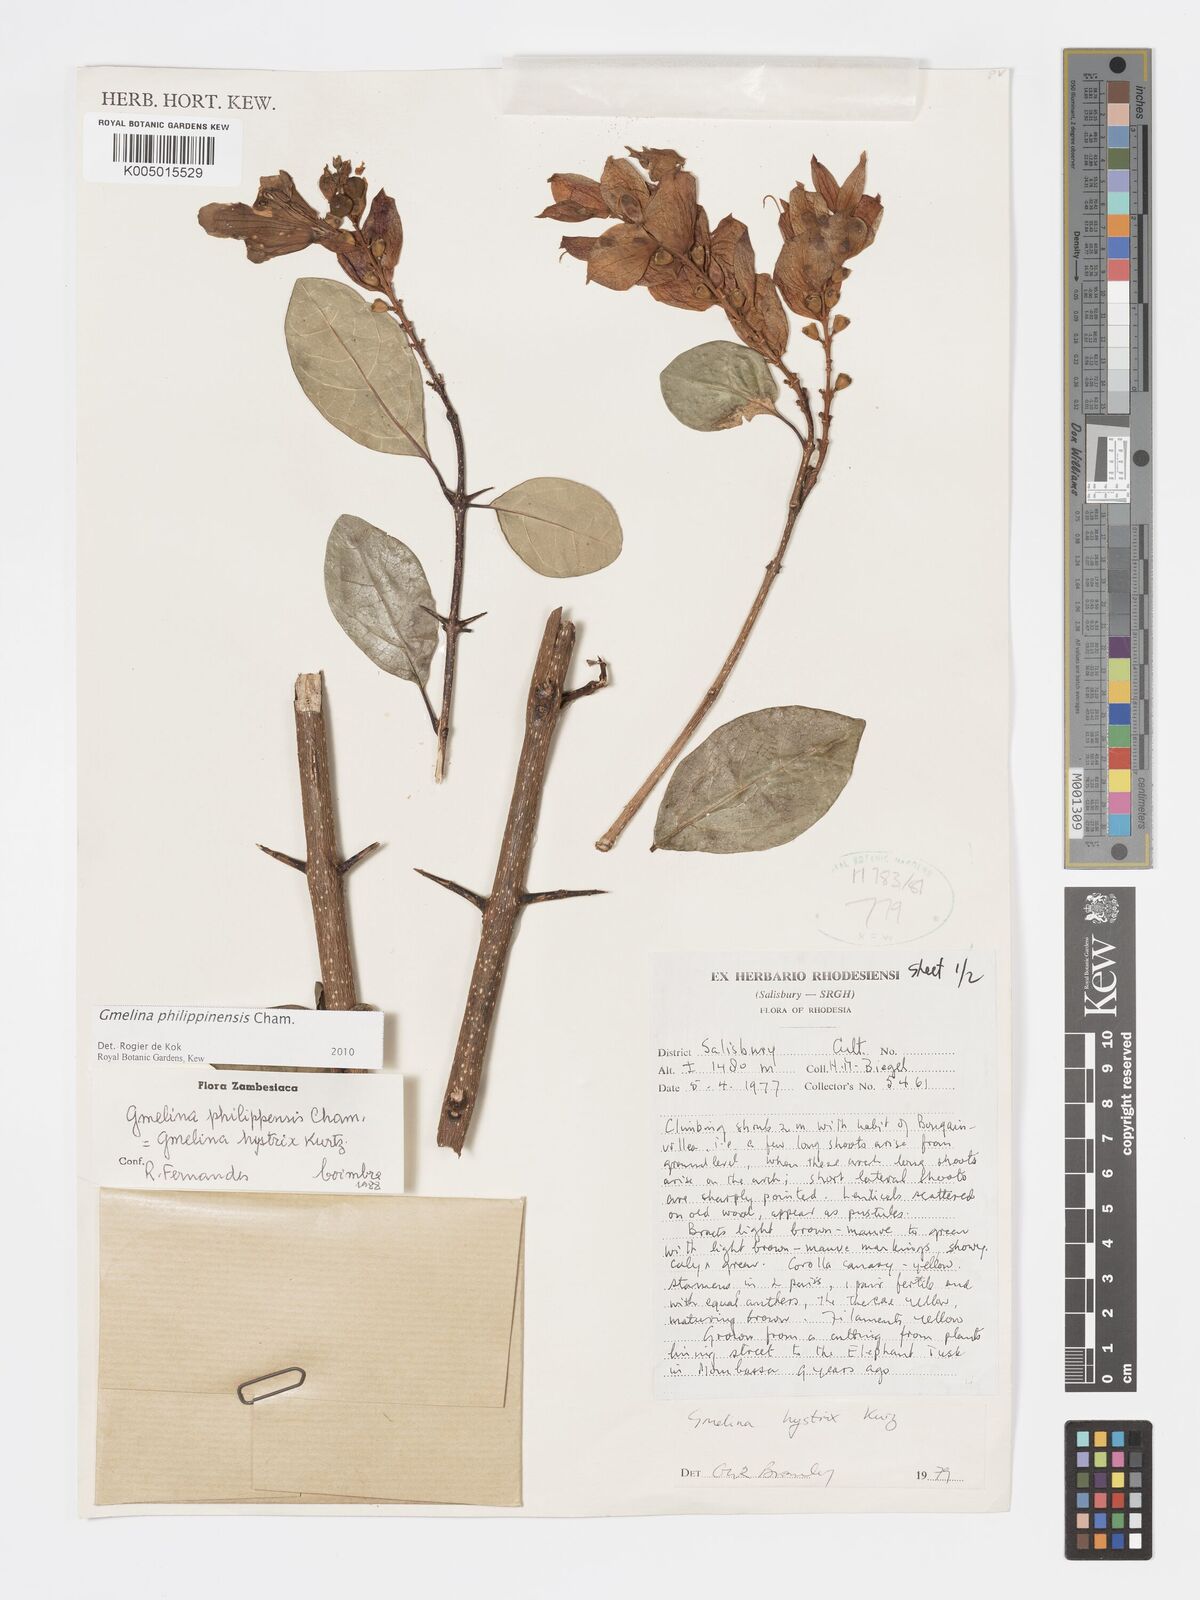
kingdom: Plantae
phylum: Tracheophyta
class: Magnoliopsida
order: Lamiales
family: Lamiaceae
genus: Gmelina
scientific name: Gmelina philippensis
